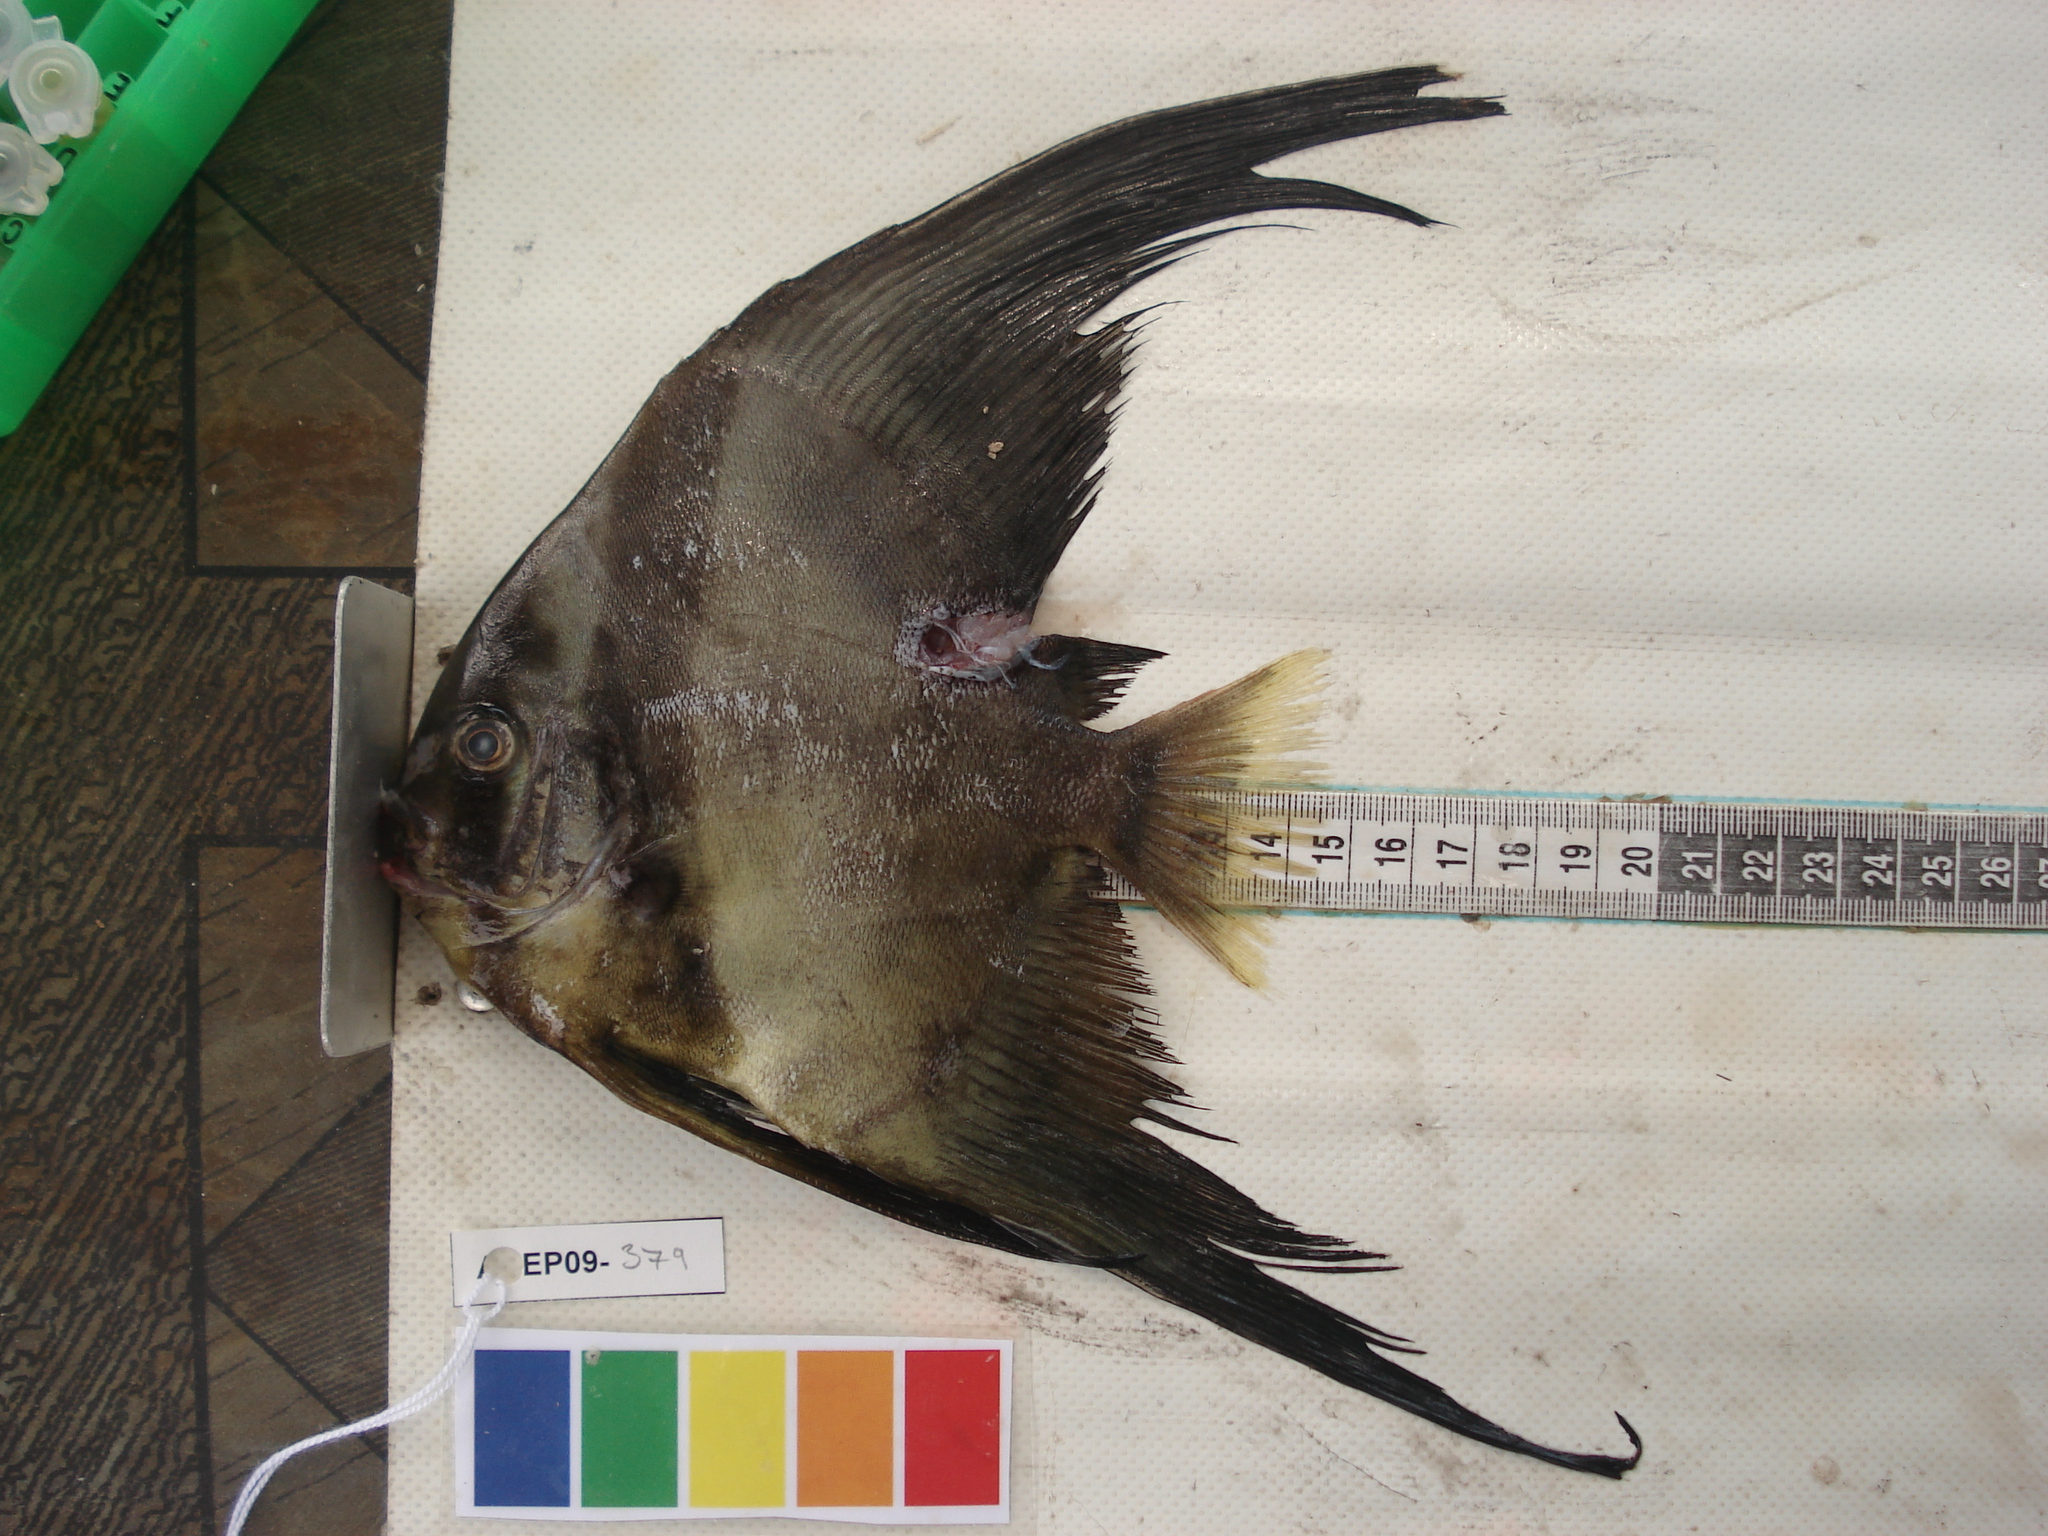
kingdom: Animalia
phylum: Chordata
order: Perciformes
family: Ephippidae
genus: Platax
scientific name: Platax teira
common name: Longfin baitfish
